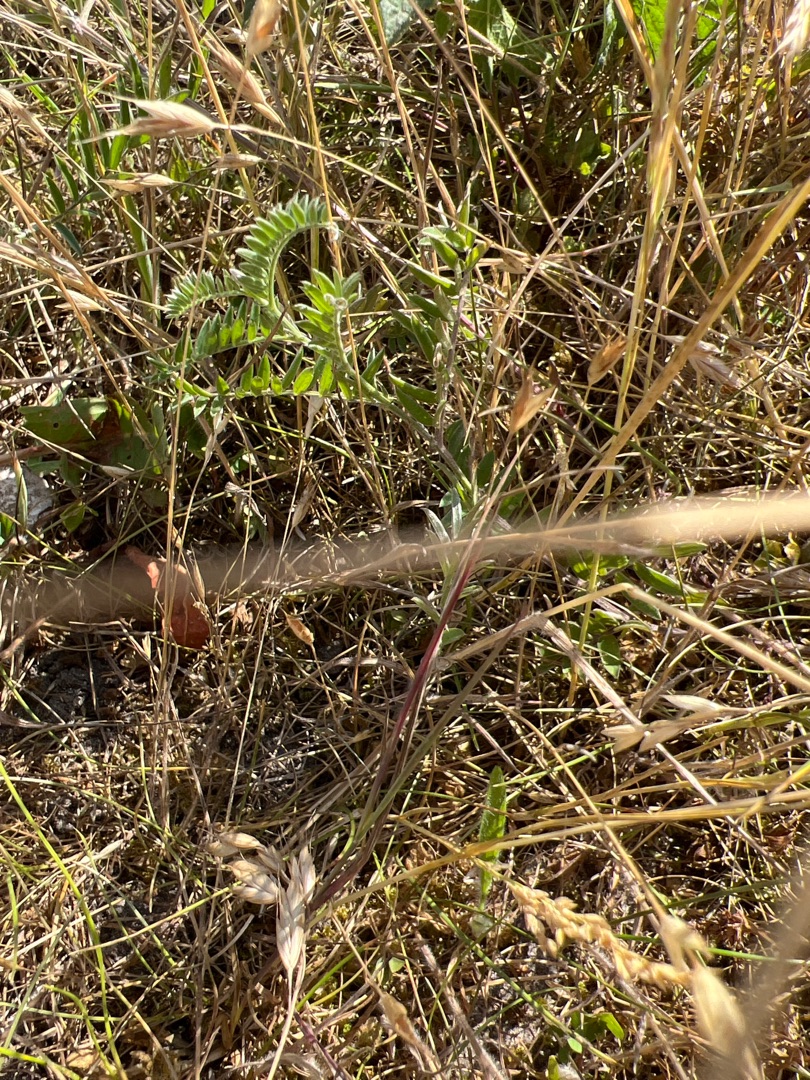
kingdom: Plantae
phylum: Tracheophyta
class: Magnoliopsida
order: Fabales
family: Fabaceae
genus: Vicia
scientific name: Vicia cracca
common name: Muse-vikke
